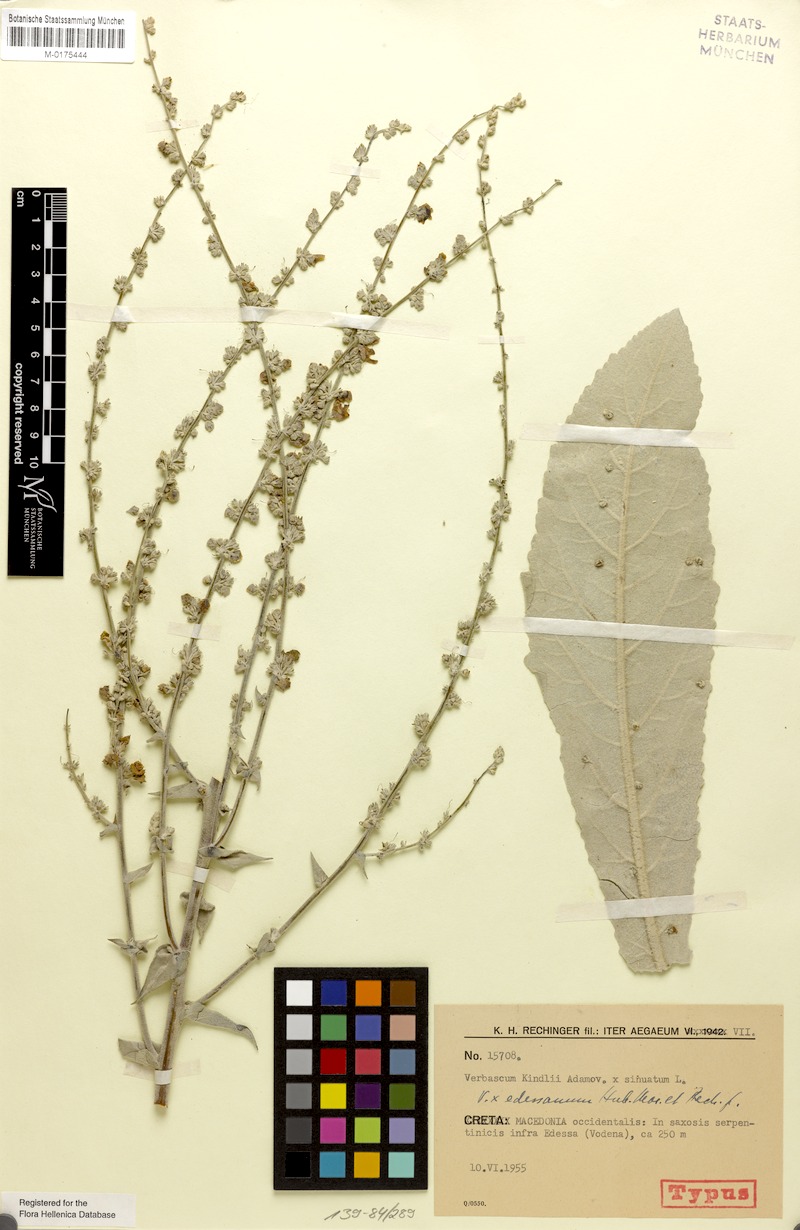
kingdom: Plantae
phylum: Tracheophyta
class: Magnoliopsida
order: Lamiales
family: Scrophulariaceae
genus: Verbascum
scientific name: Verbascum edessanum
